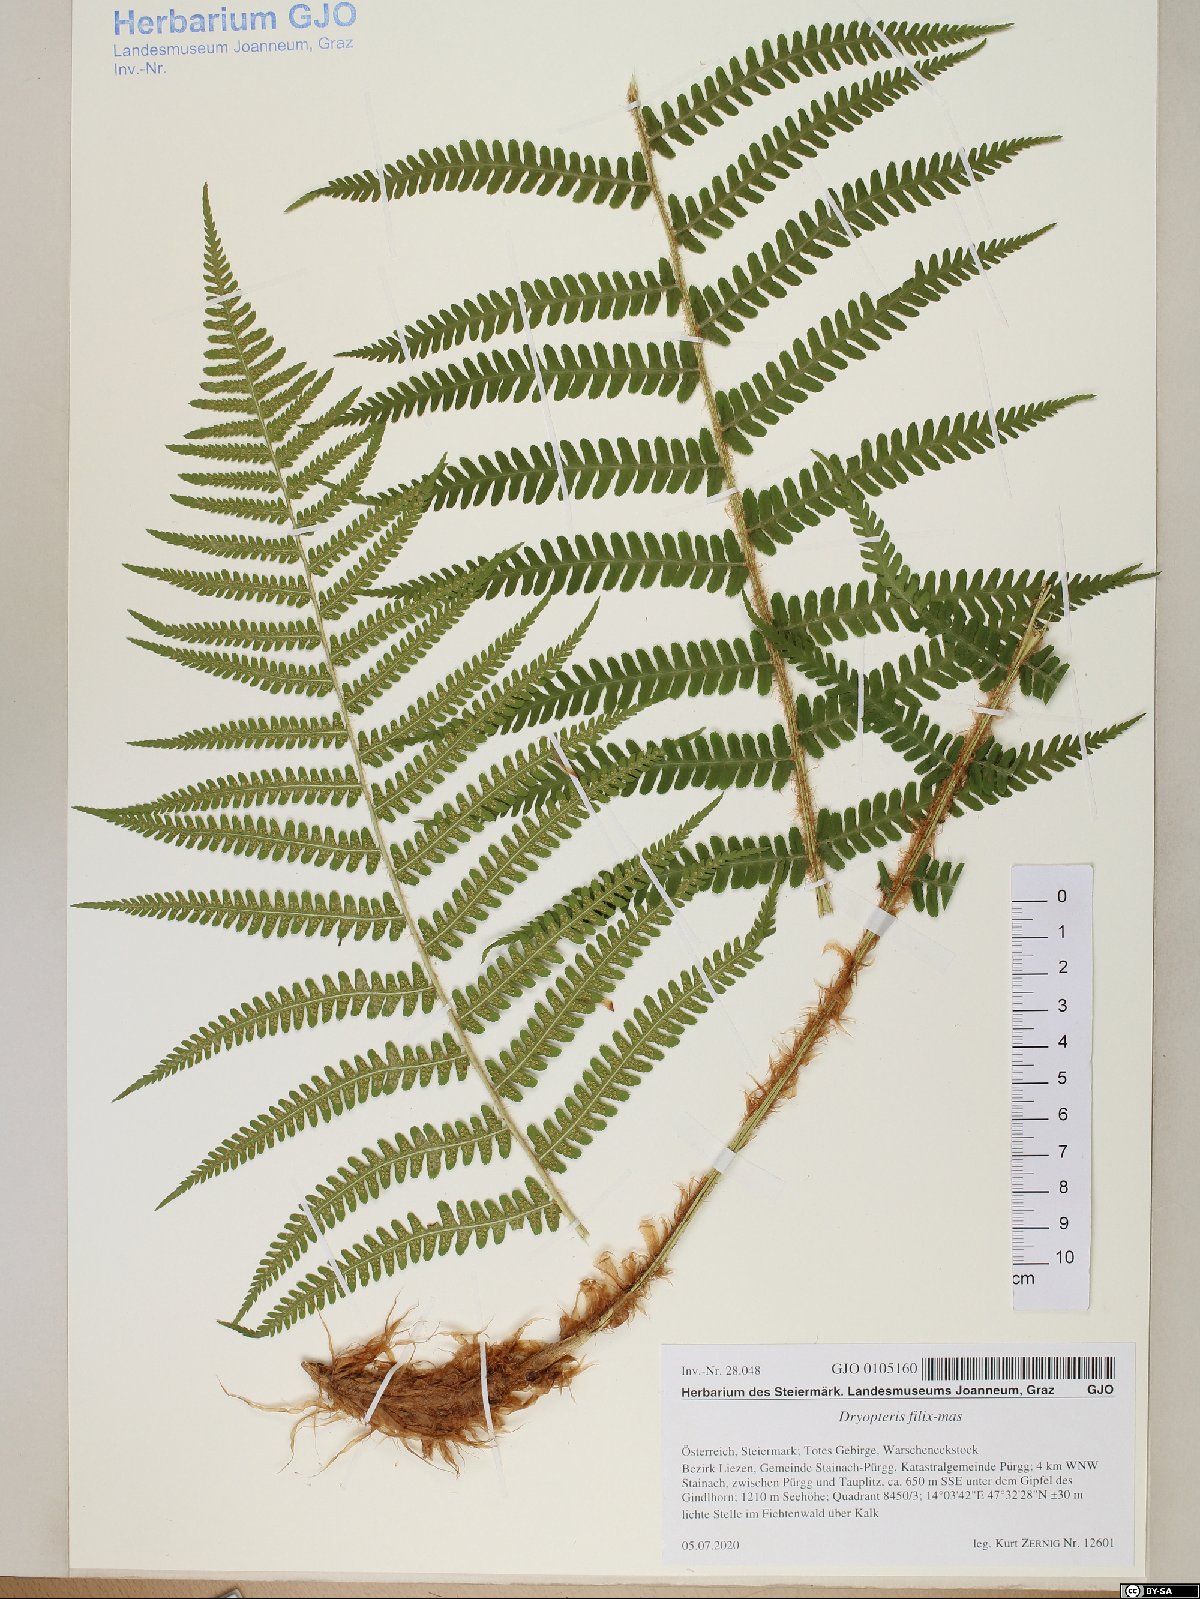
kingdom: Plantae
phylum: Tracheophyta
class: Polypodiopsida
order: Polypodiales
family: Dryopteridaceae
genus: Dryopteris
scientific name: Dryopteris filix-mas
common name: Male fern
